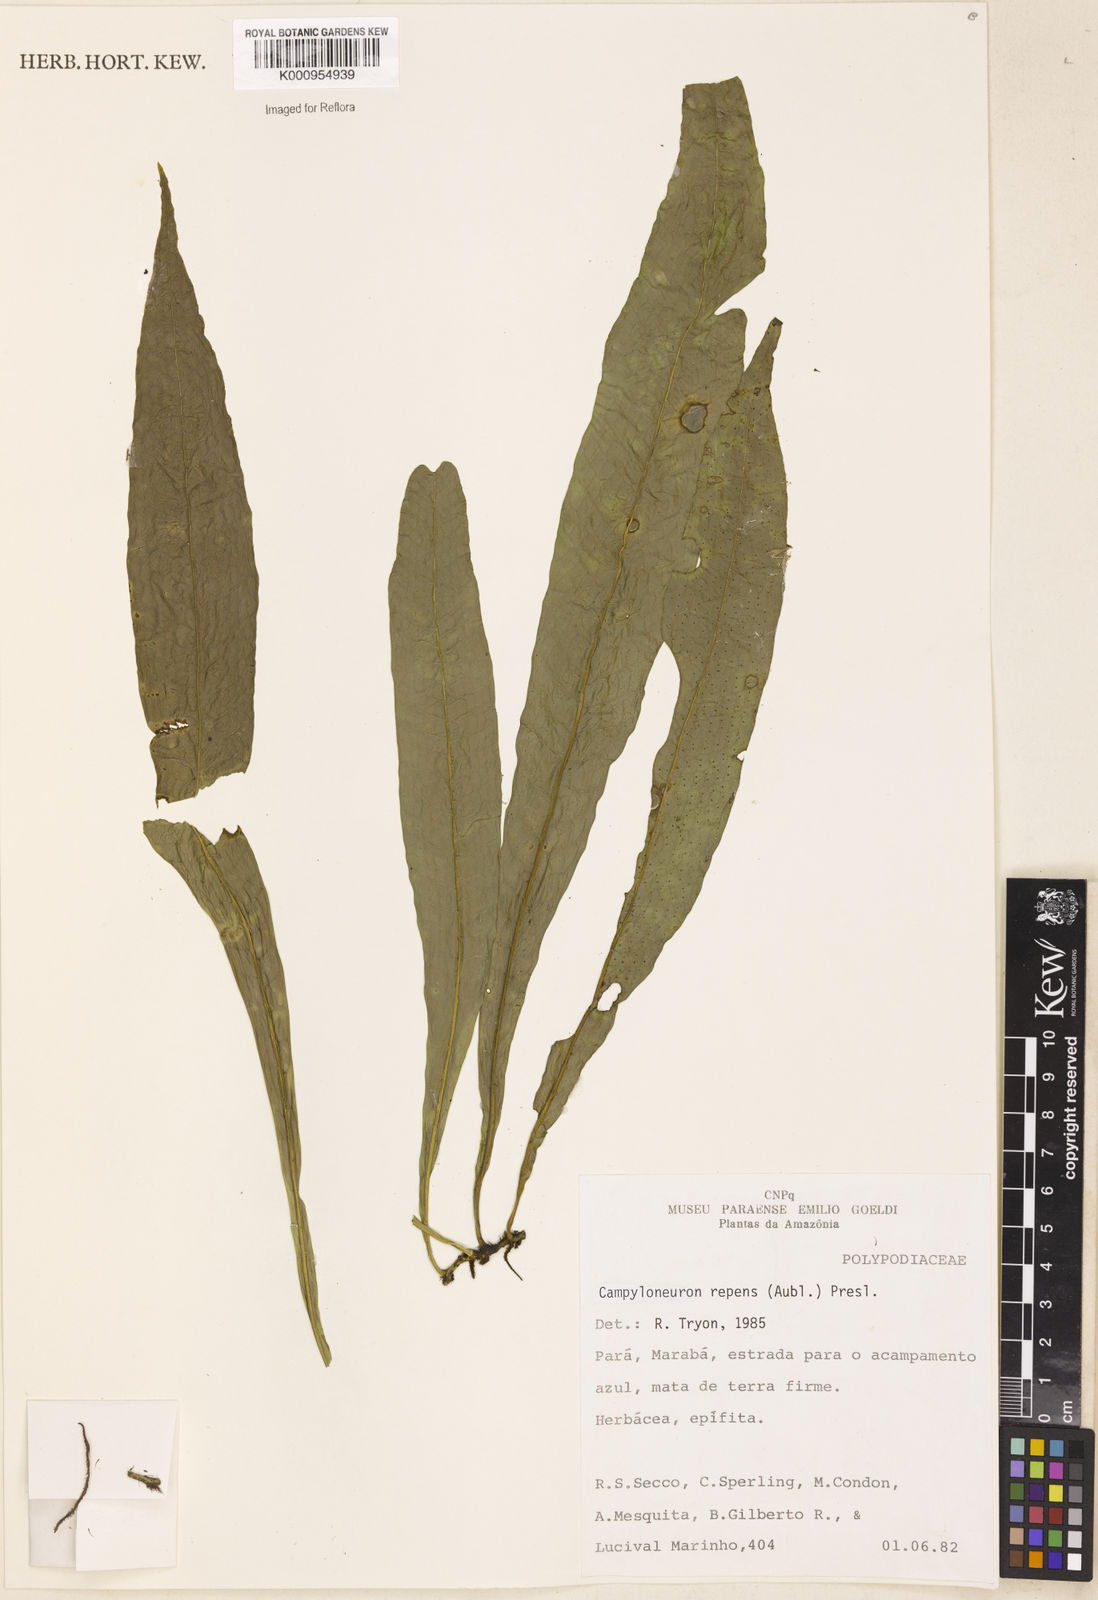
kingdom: Plantae
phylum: Tracheophyta
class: Polypodiopsida
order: Polypodiales
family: Polypodiaceae
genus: Campyloneurum
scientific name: Campyloneurum repens
